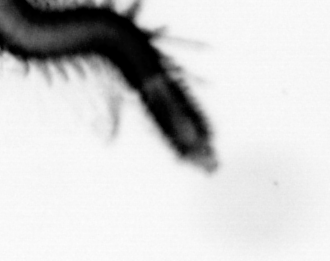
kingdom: Animalia
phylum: Annelida
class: Polychaeta
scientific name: Polychaeta
